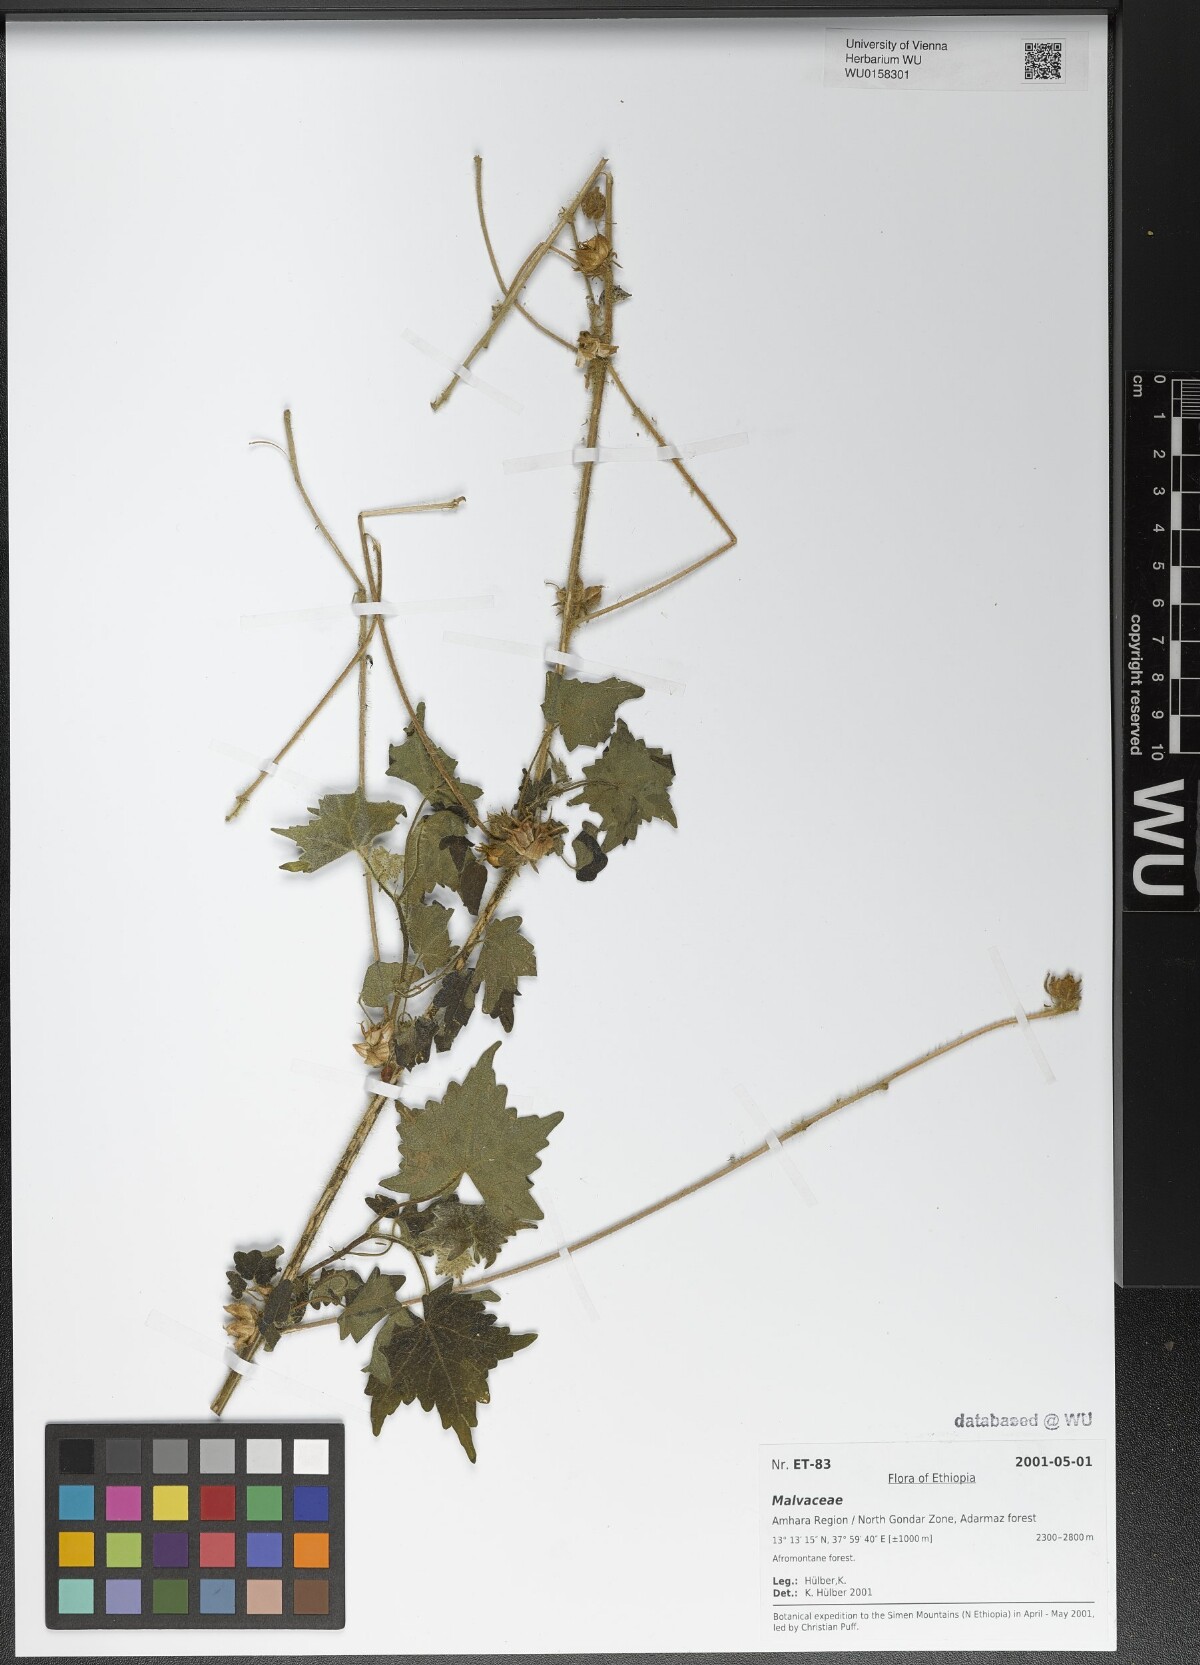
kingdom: Plantae
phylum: Tracheophyta
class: Magnoliopsida
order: Malvales
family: Malvaceae
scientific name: Malvaceae
